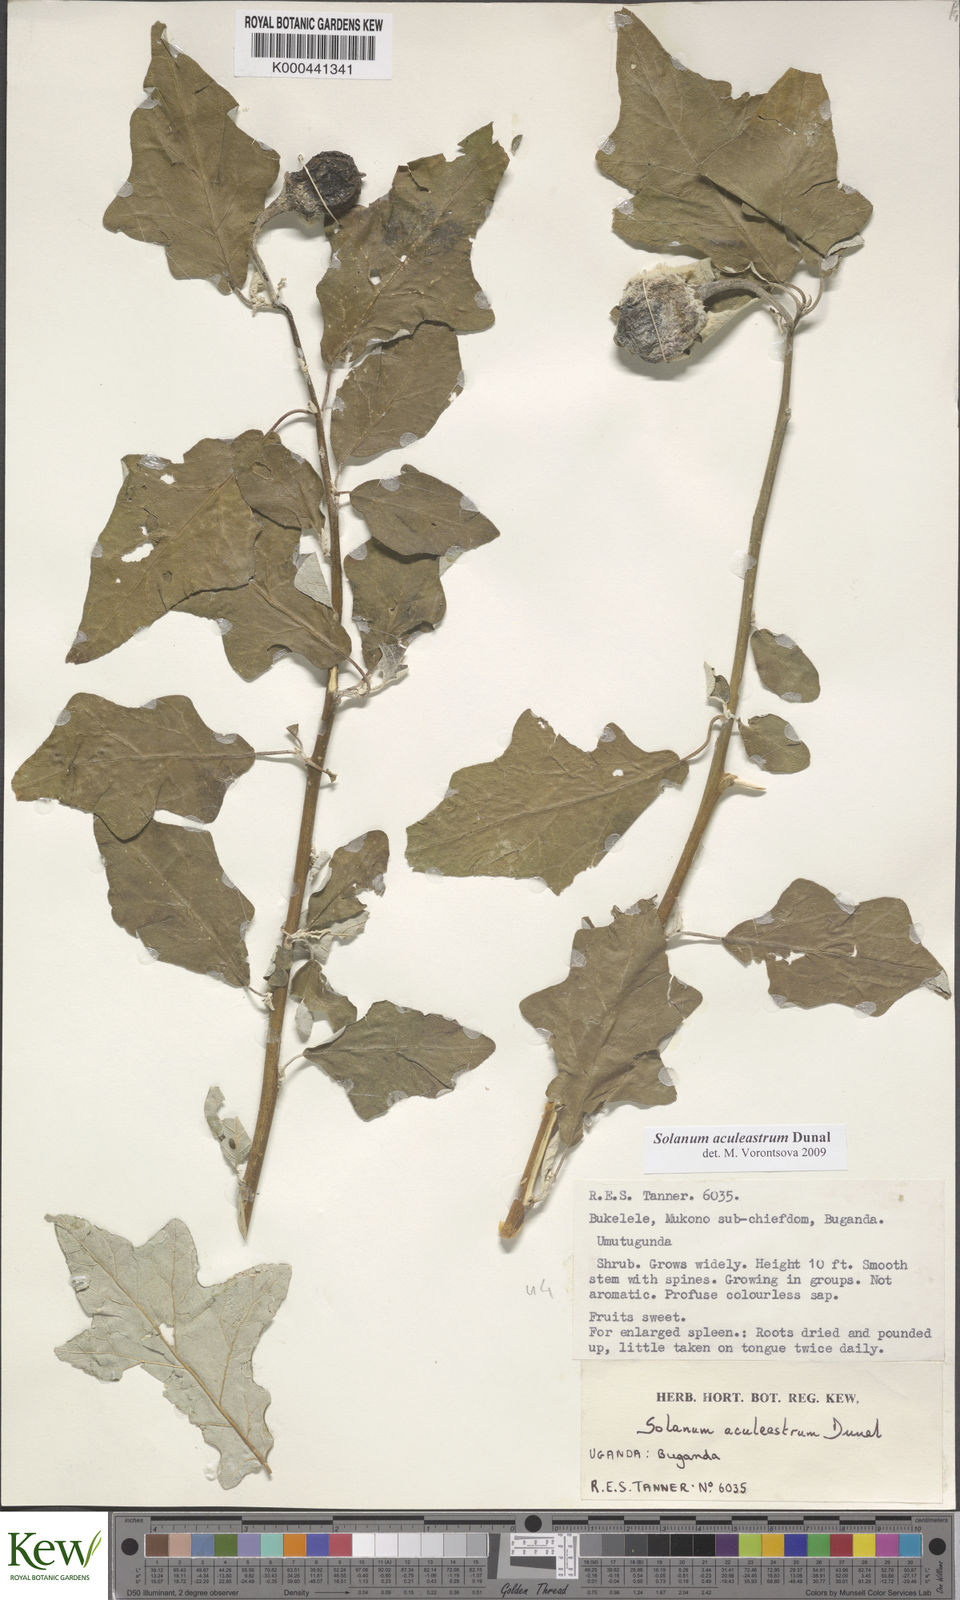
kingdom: Plantae
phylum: Tracheophyta
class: Magnoliopsida
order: Solanales
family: Solanaceae
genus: Solanum
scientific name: Solanum aculeastrum
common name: Goat bitter-apple
